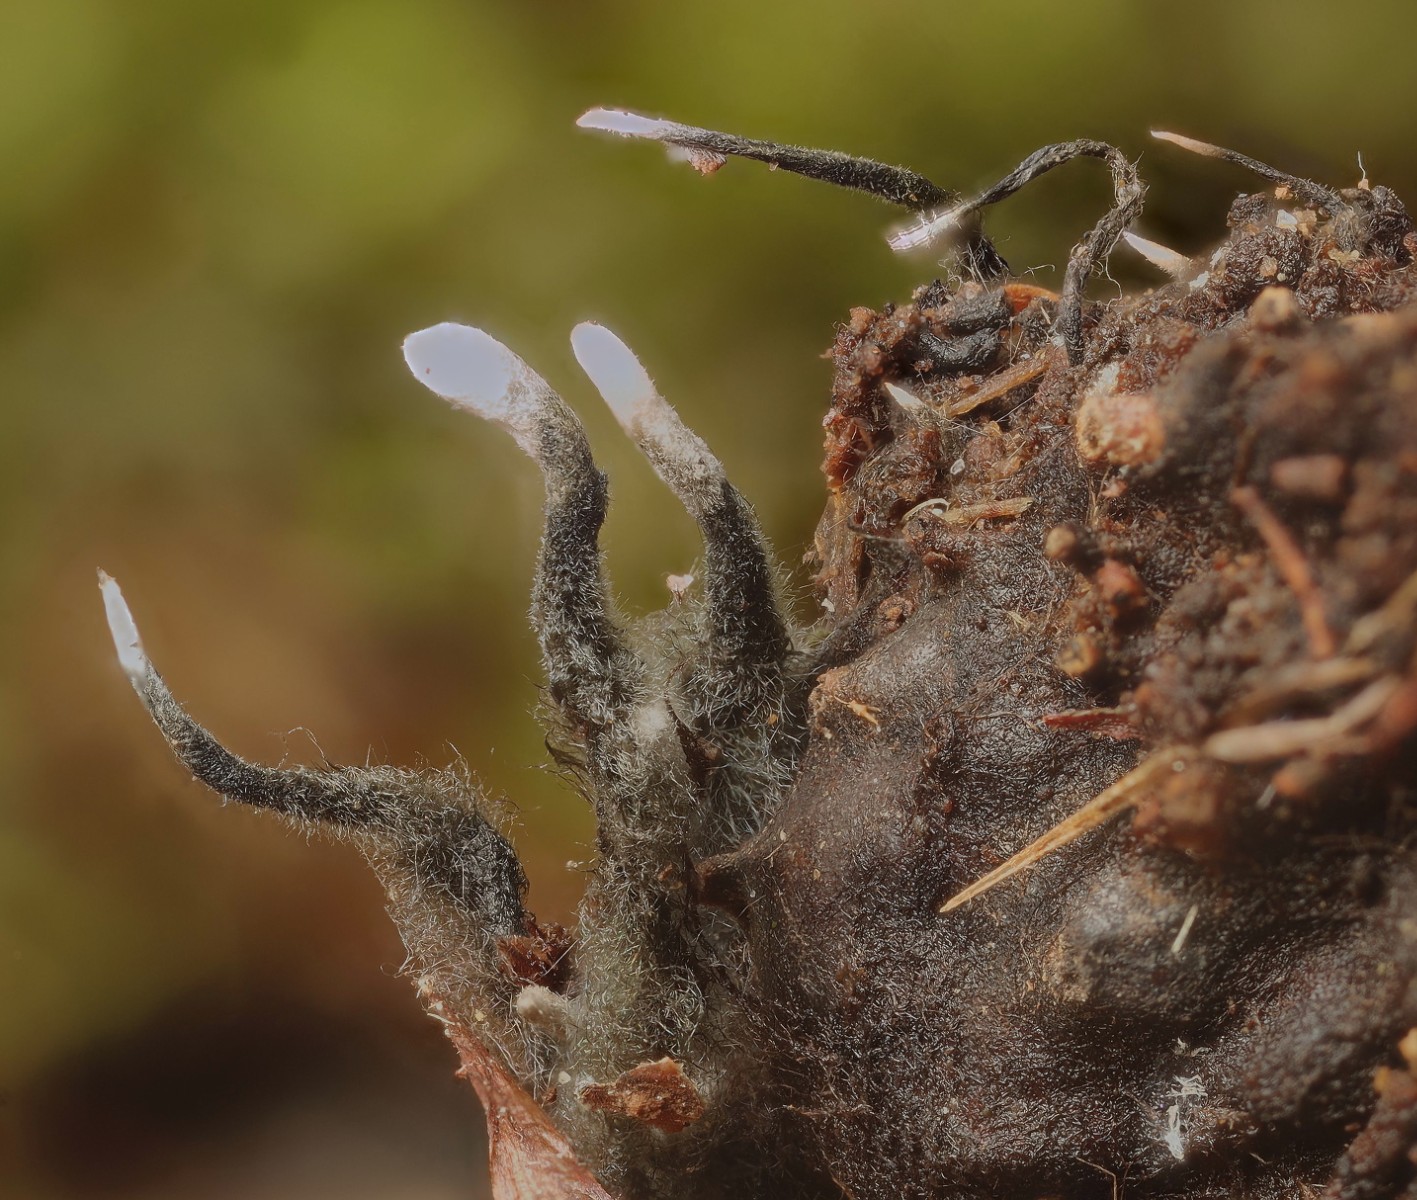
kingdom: Fungi
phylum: Ascomycota
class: Sordariomycetes
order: Xylariales
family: Xylariaceae
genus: Xylaria
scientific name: Xylaria carpophila
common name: bogskål-stødsvamp
